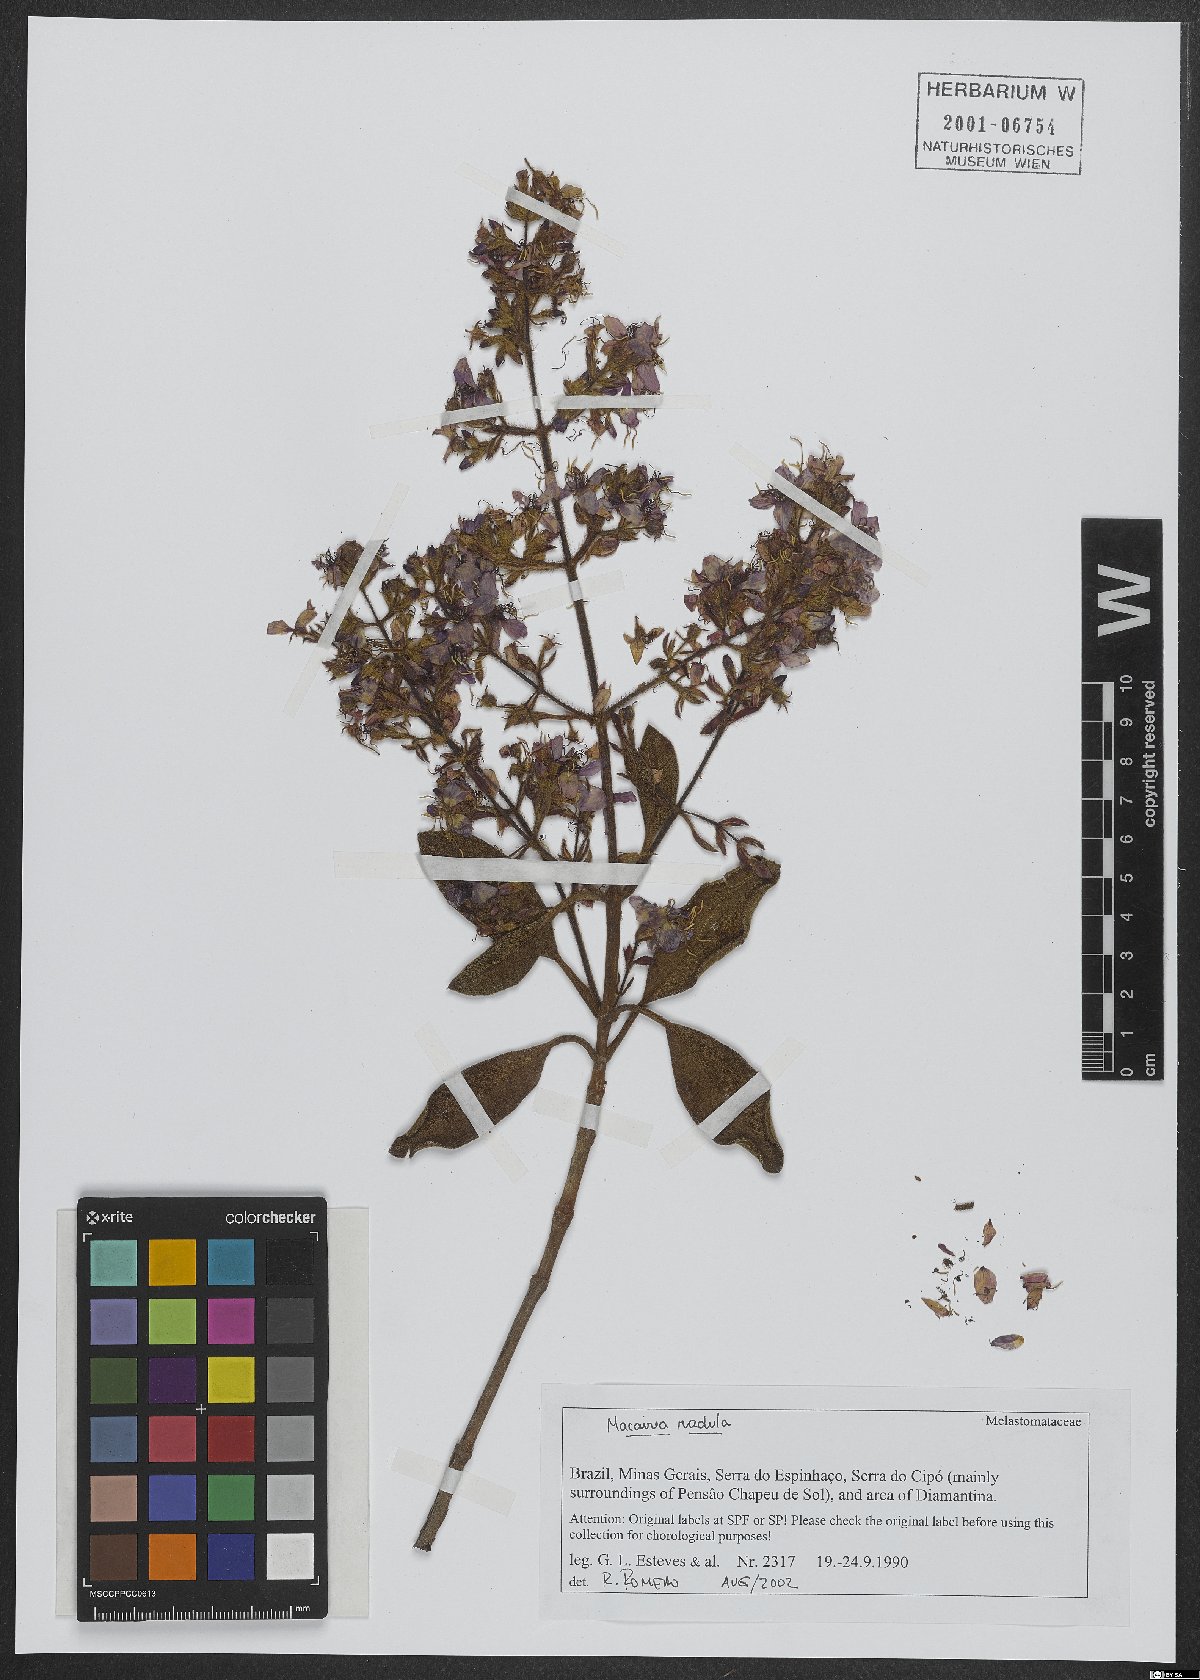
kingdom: Plantae
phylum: Tracheophyta
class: Magnoliopsida
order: Myrtales
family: Melastomataceae
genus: Macairea
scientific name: Macairea radula
